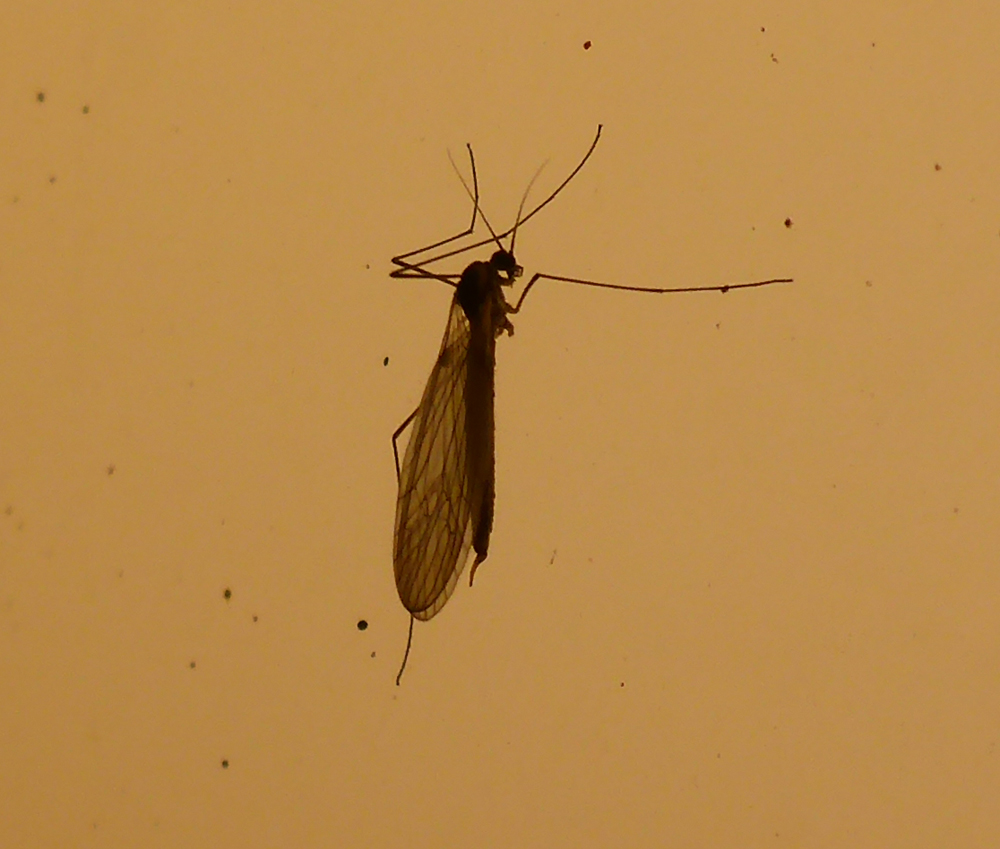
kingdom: Animalia
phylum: Arthropoda
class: Insecta
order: Diptera
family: Trichoceridae
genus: Trichocera
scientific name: Trichocera hiemalis
